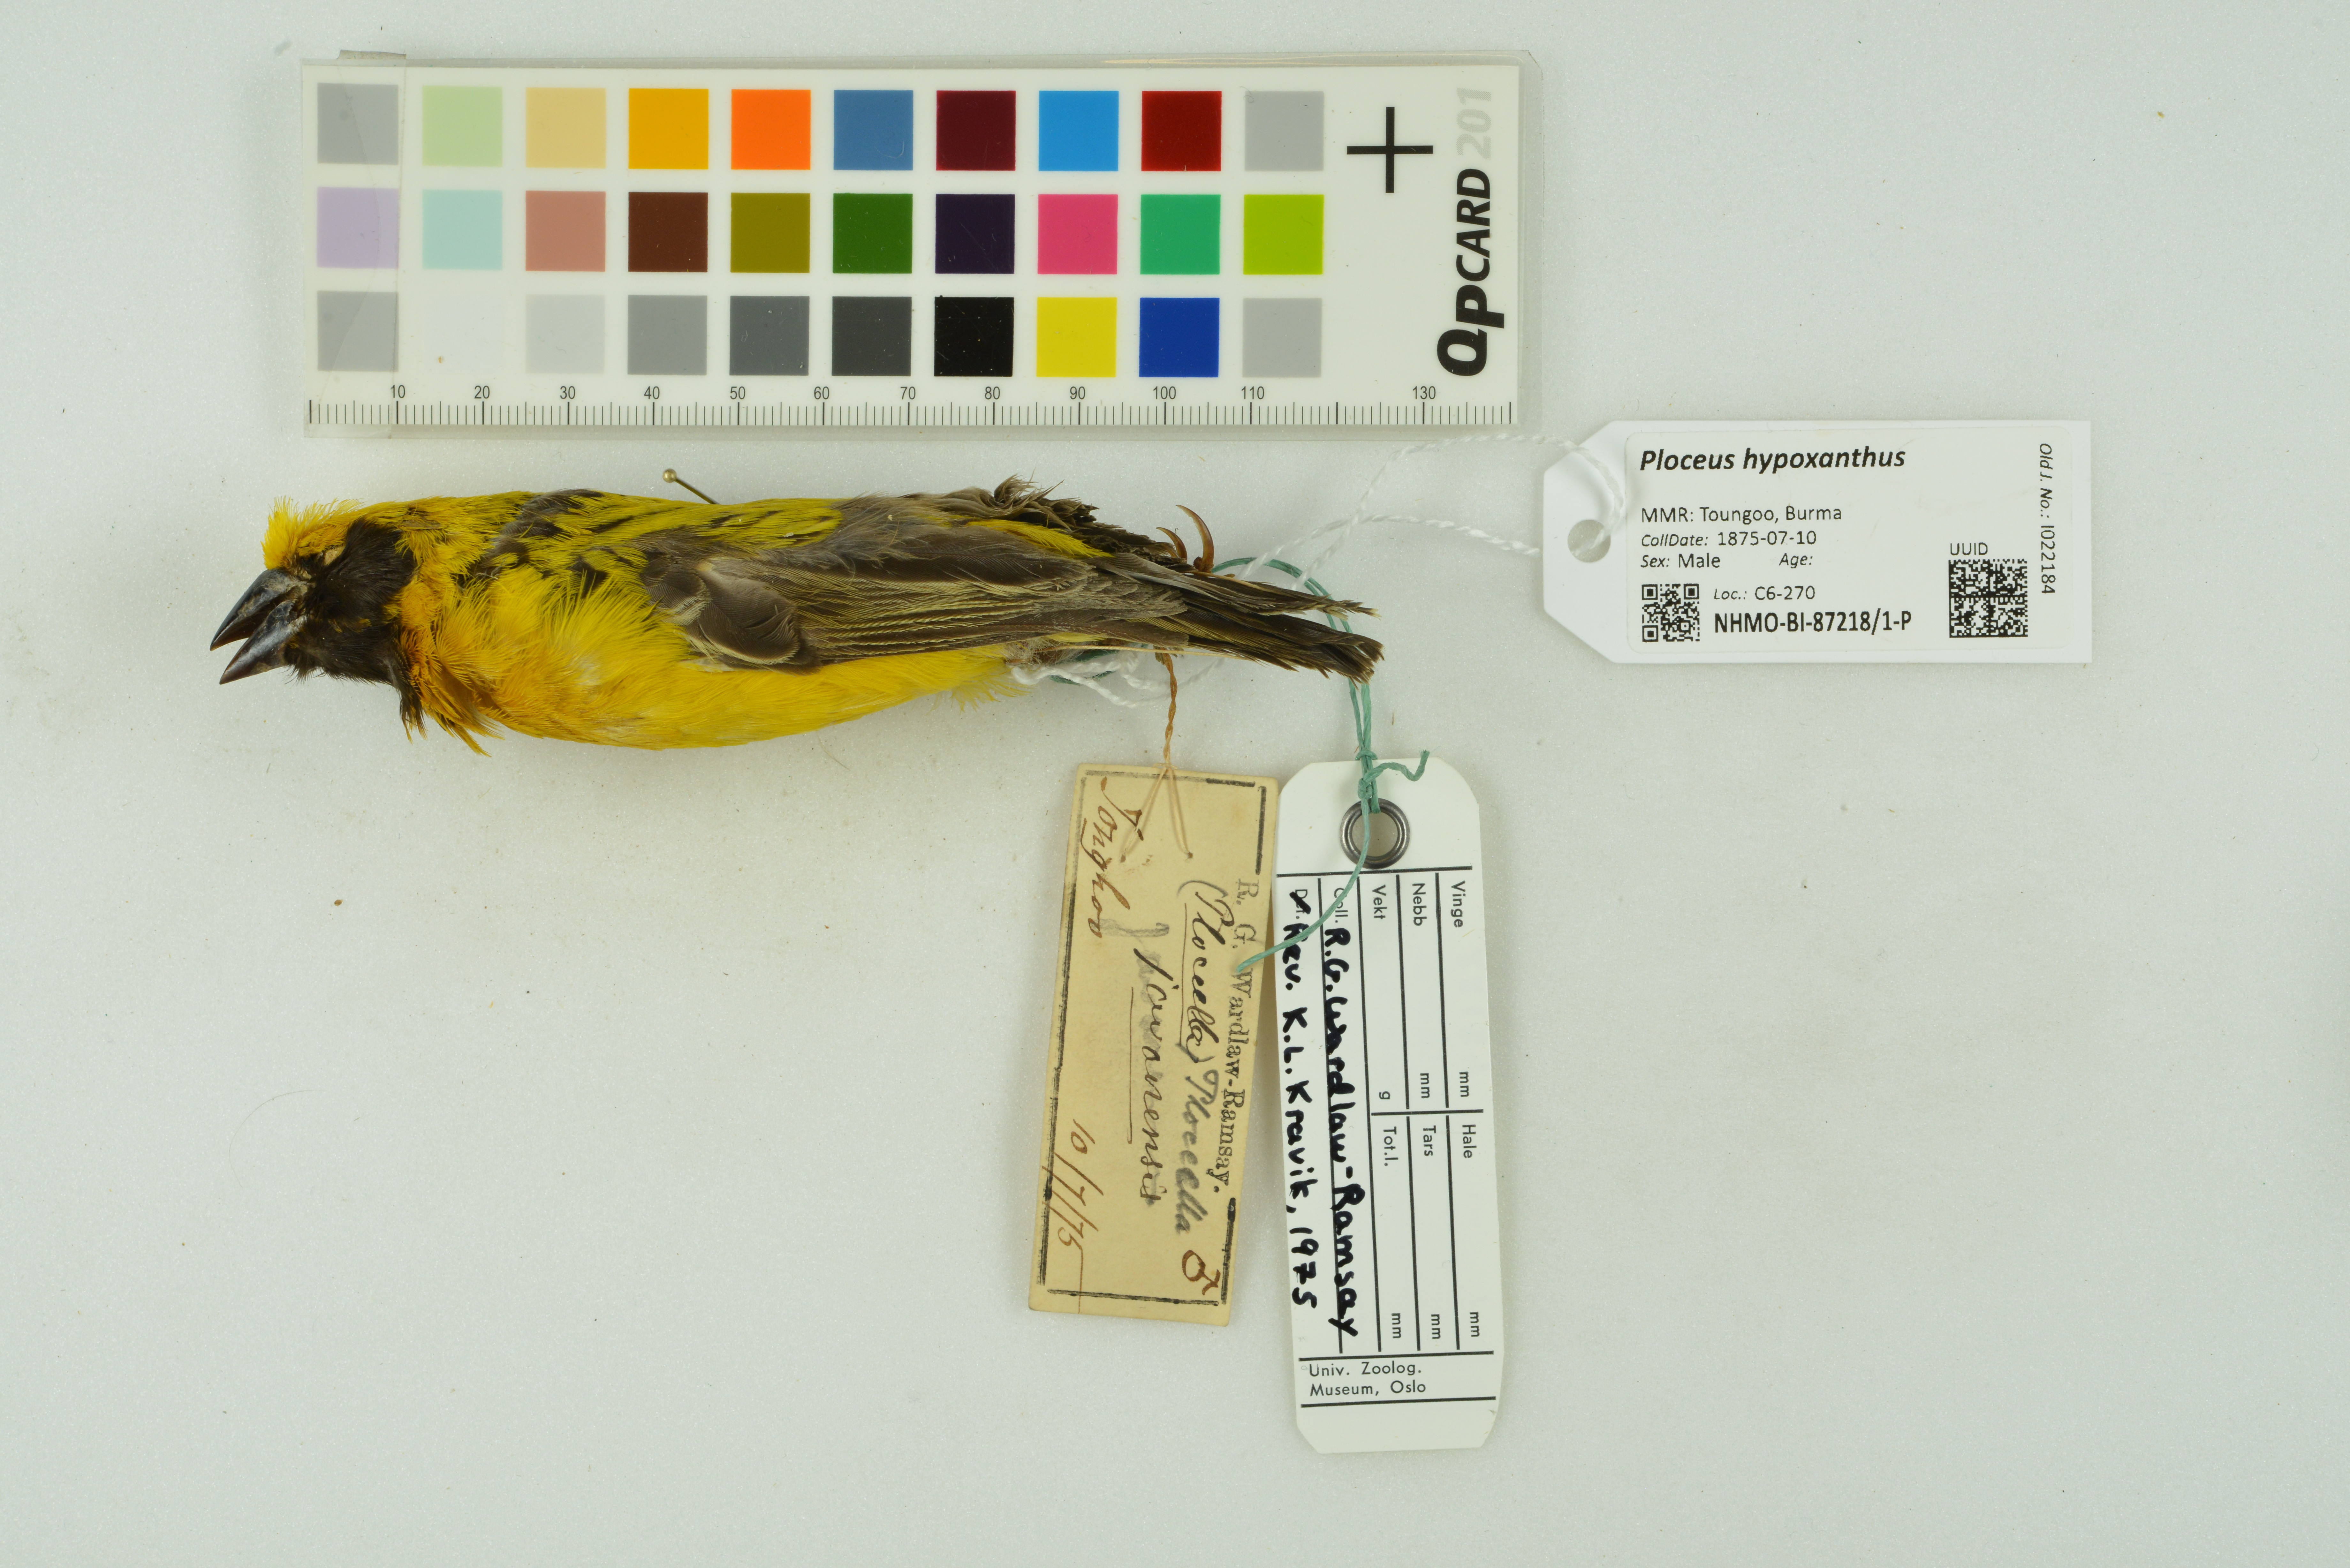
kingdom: Animalia
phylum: Chordata
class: Aves
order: Passeriformes
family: Ploceidae
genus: Ploceus
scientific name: Ploceus hypoxanthus
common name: Asian golden weaver
